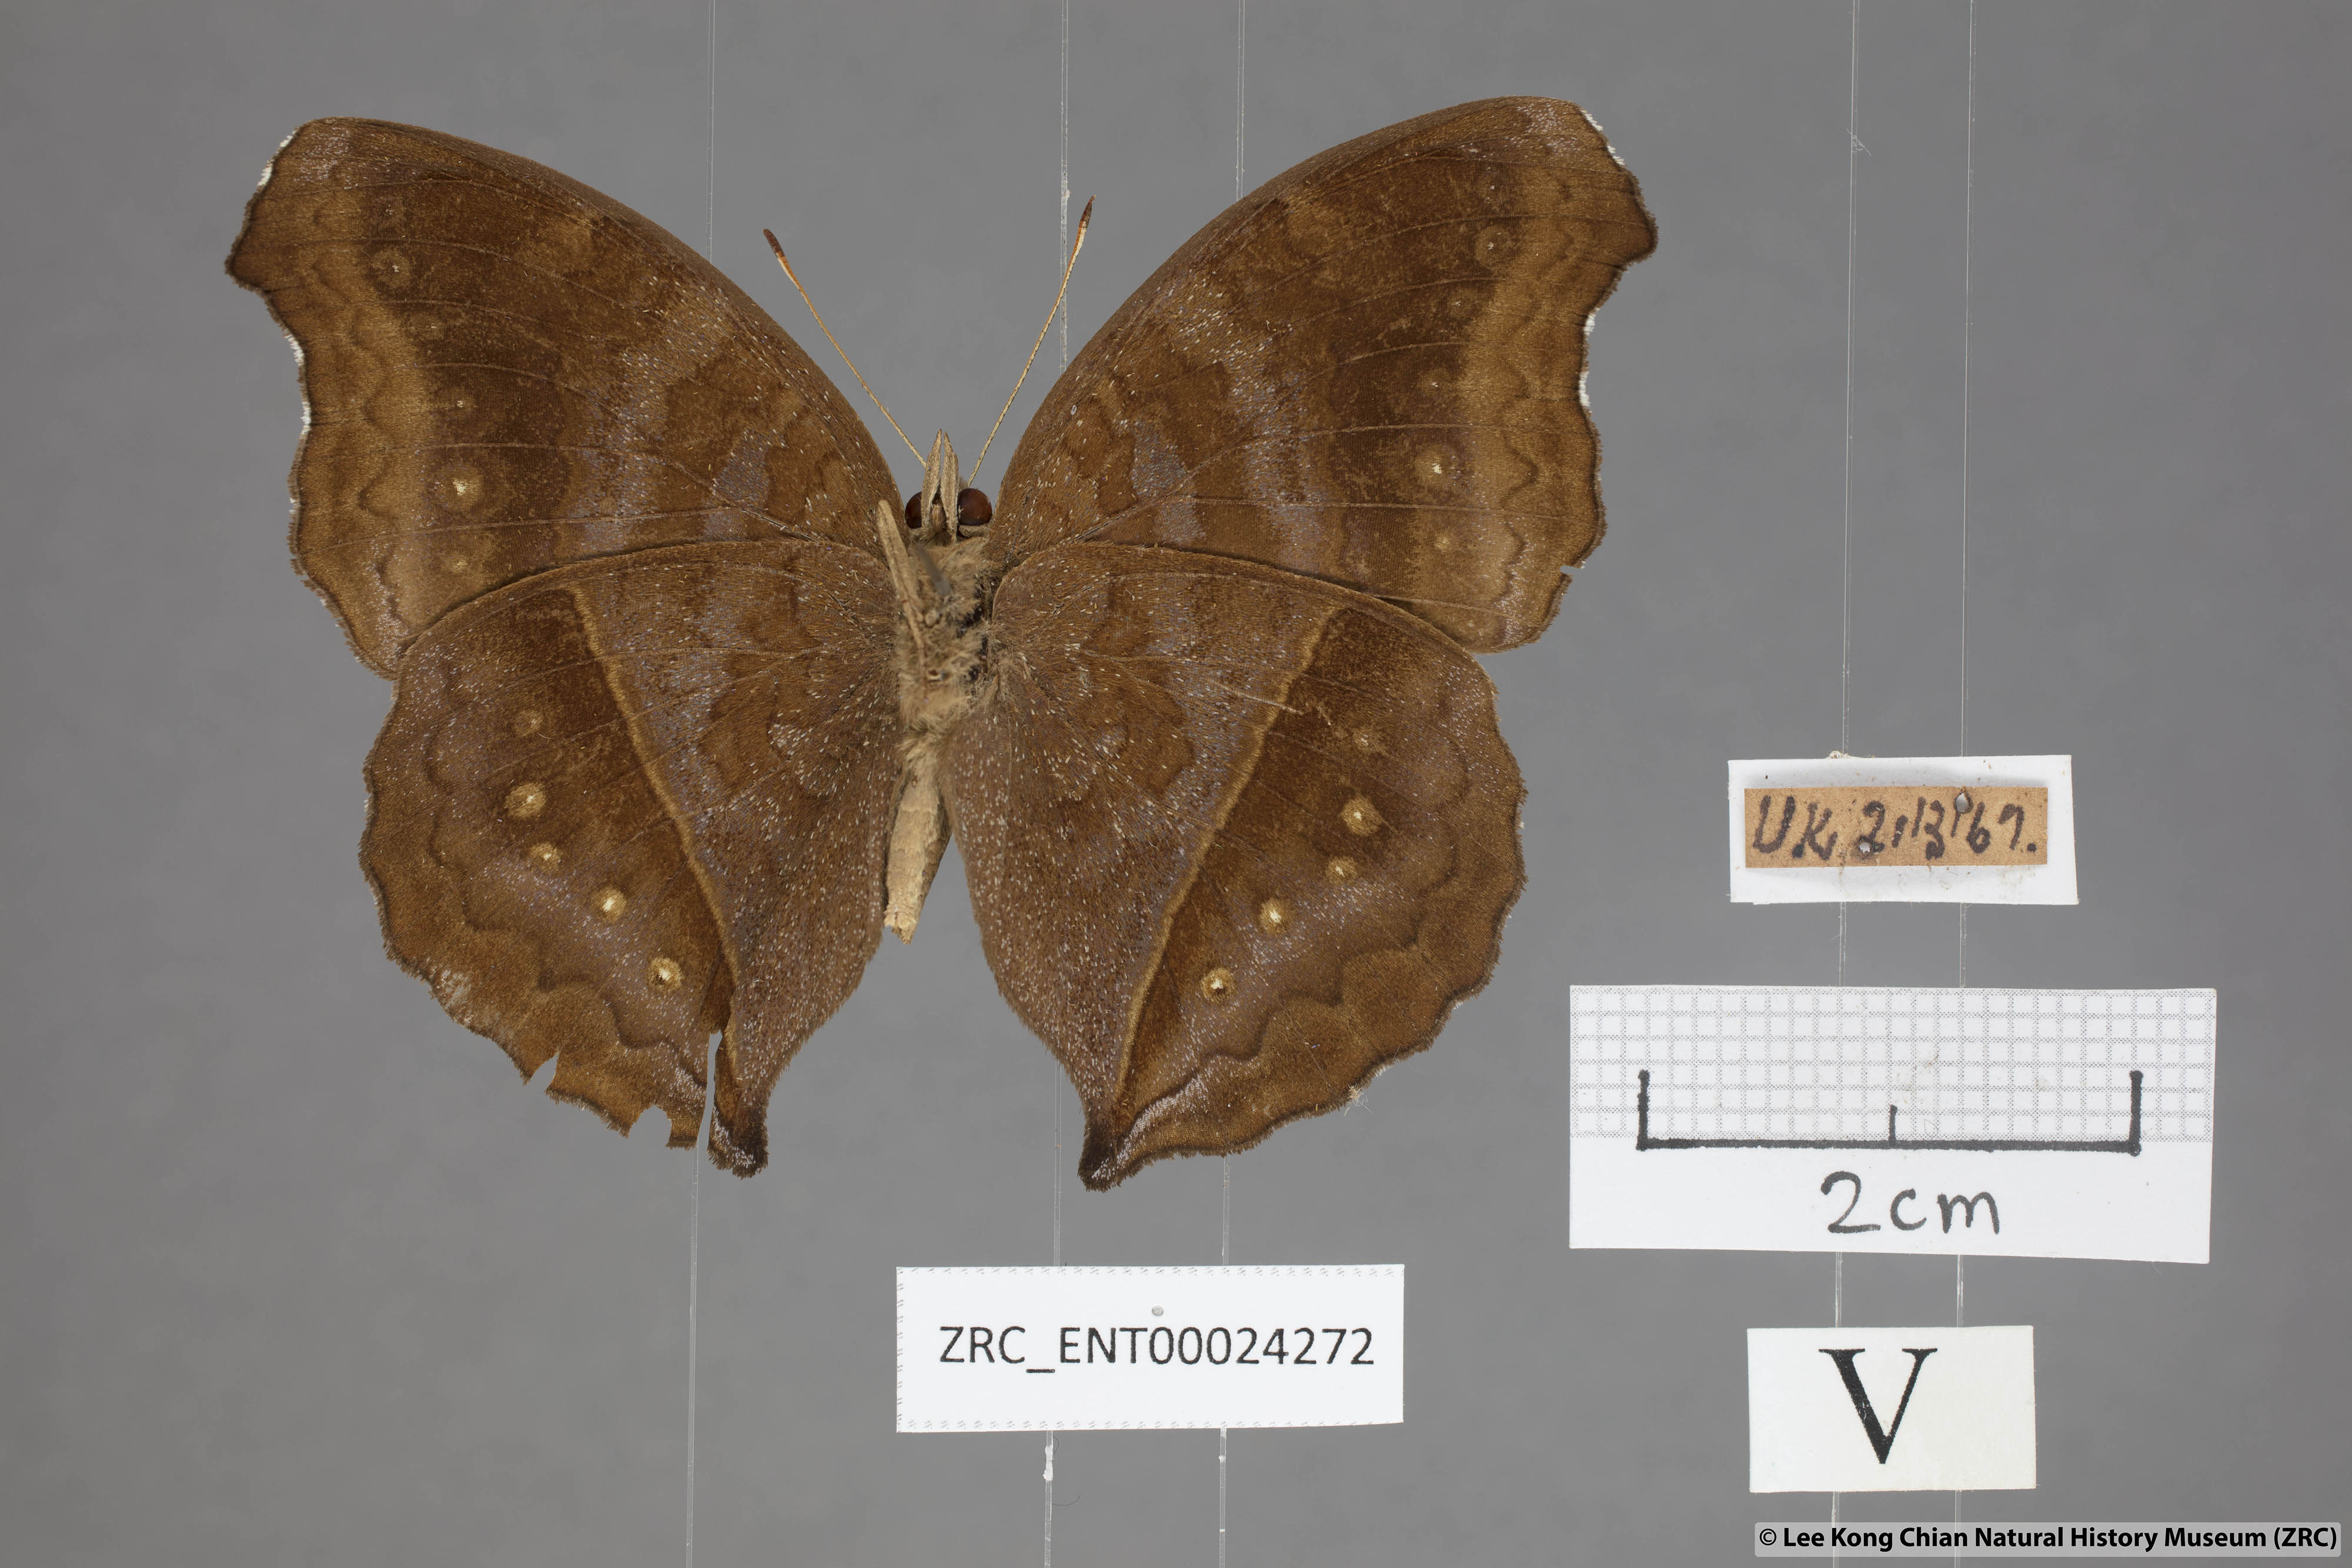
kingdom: Animalia
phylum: Arthropoda
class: Insecta
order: Lepidoptera
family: Nymphalidae
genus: Junonia
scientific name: Junonia iphita
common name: Chocolate pansy
